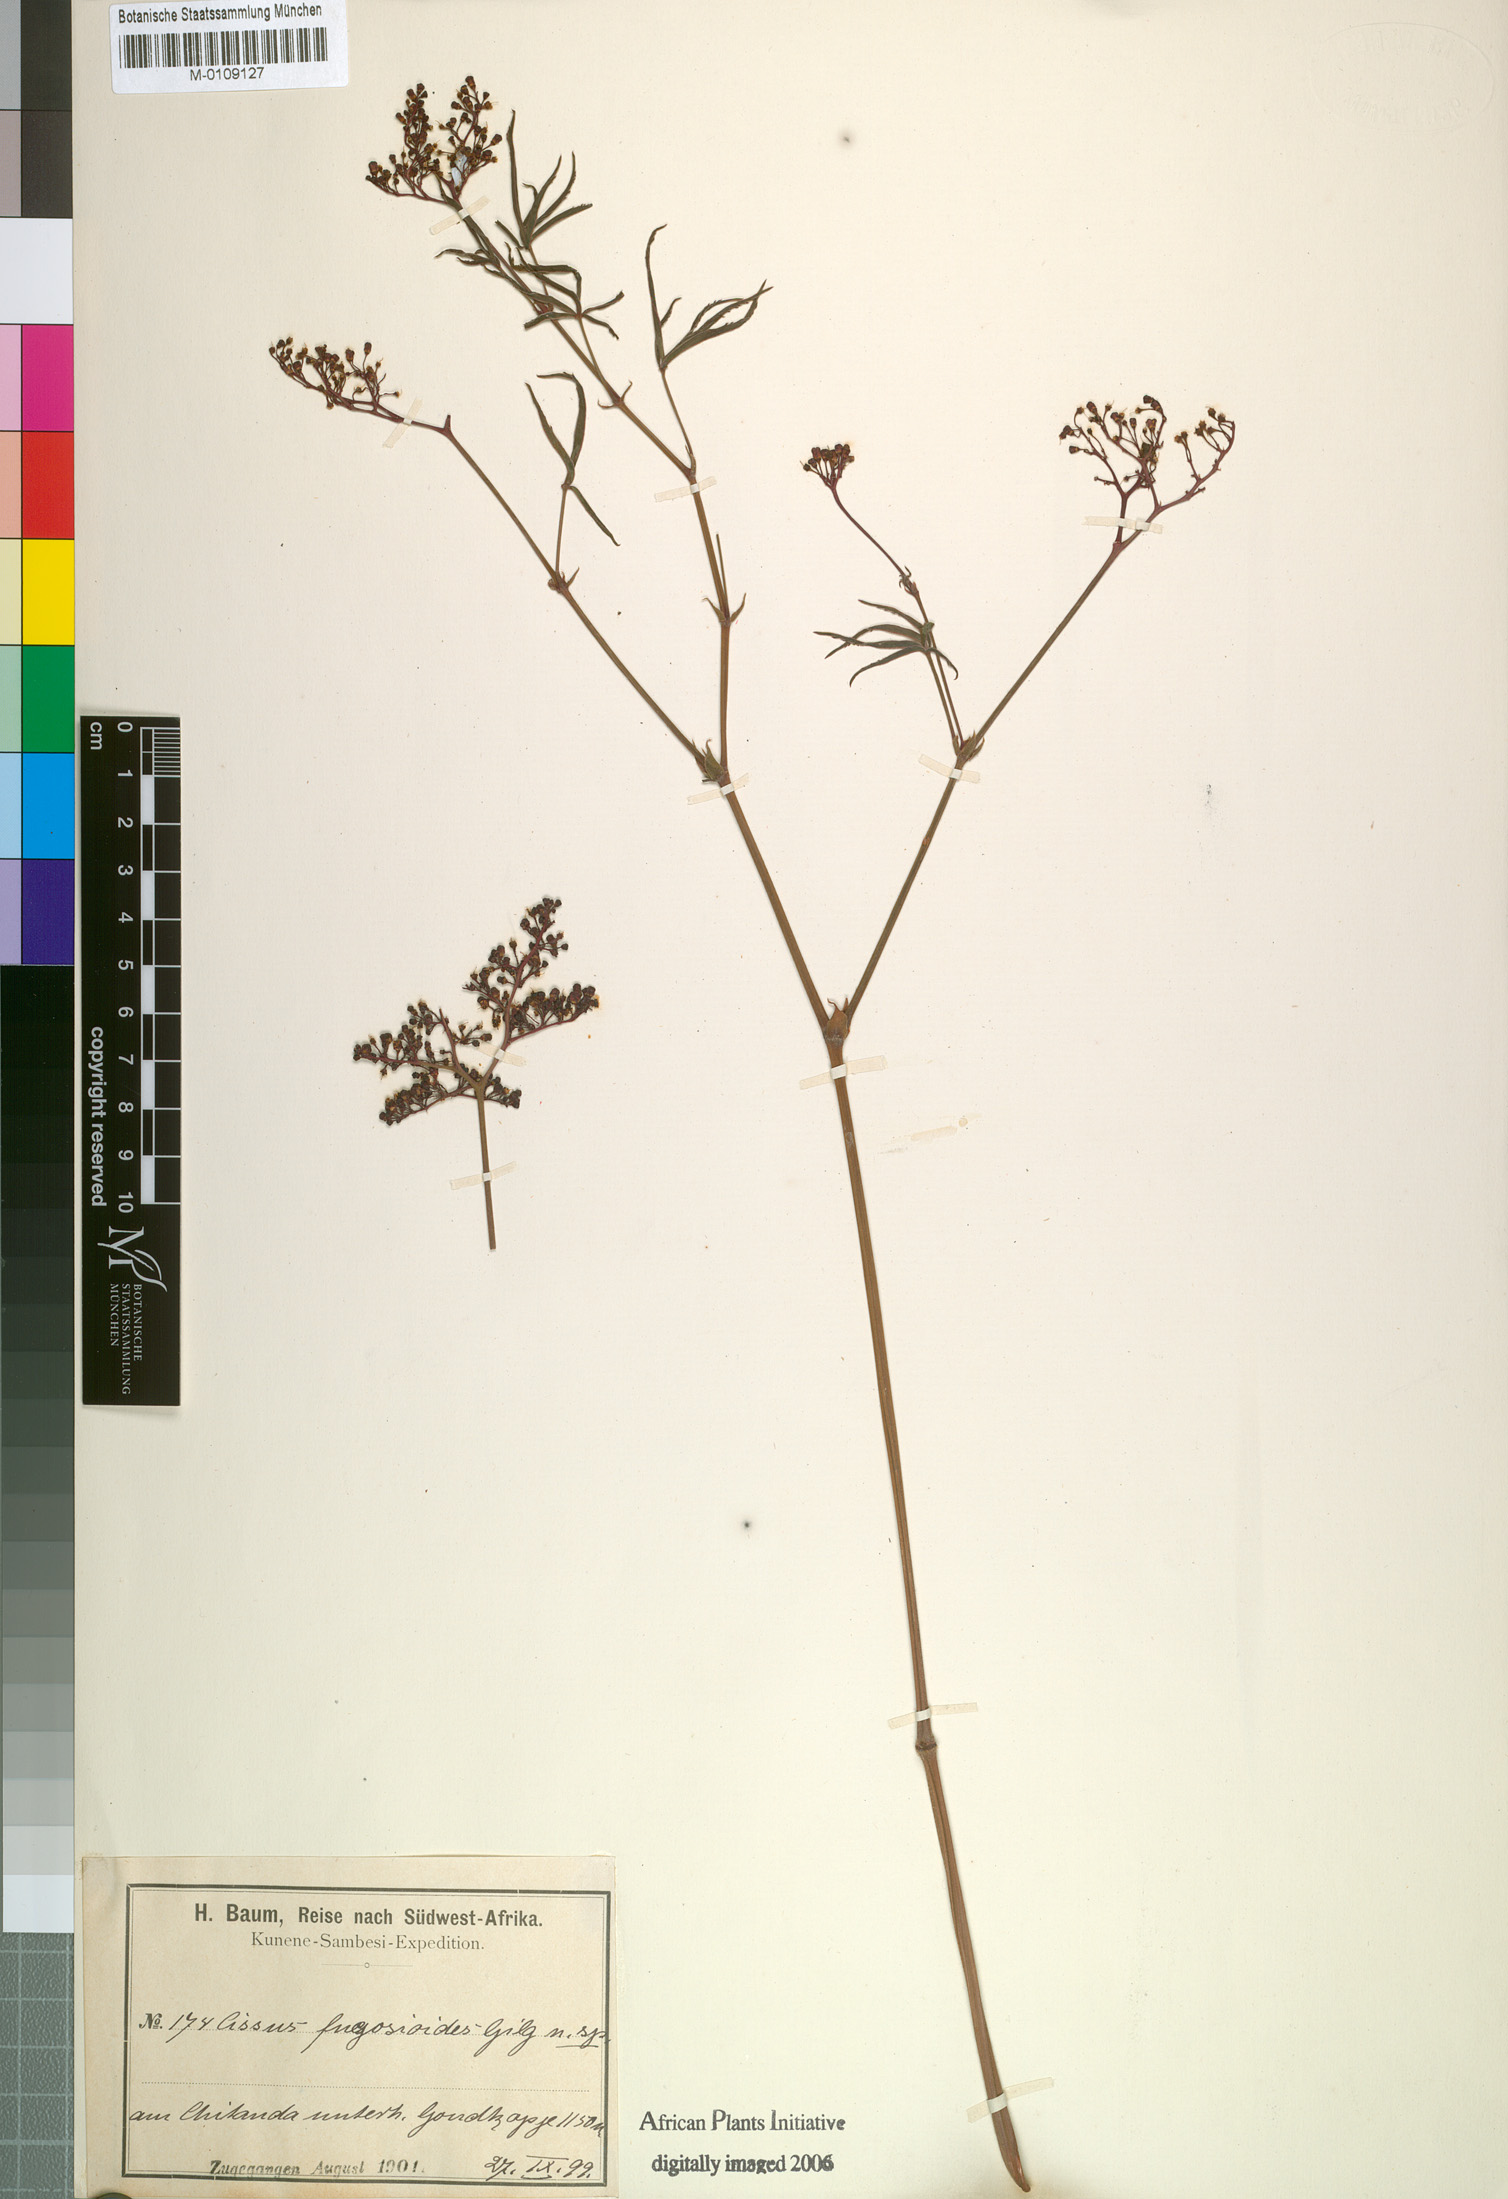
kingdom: Plantae
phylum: Tracheophyta
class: Magnoliopsida
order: Vitales
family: Vitaceae
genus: Cyphostemma
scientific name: Cyphostemma fugosioides
